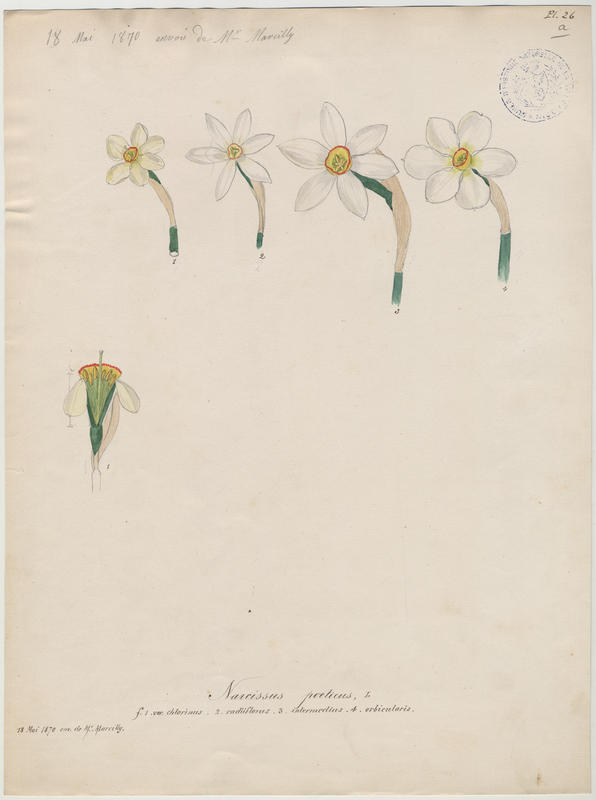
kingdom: Plantae
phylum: Tracheophyta
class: Liliopsida
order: Asparagales
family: Amaryllidaceae
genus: Narcissus
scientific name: Narcissus poeticus
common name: Pheasant's-eye daffodil
